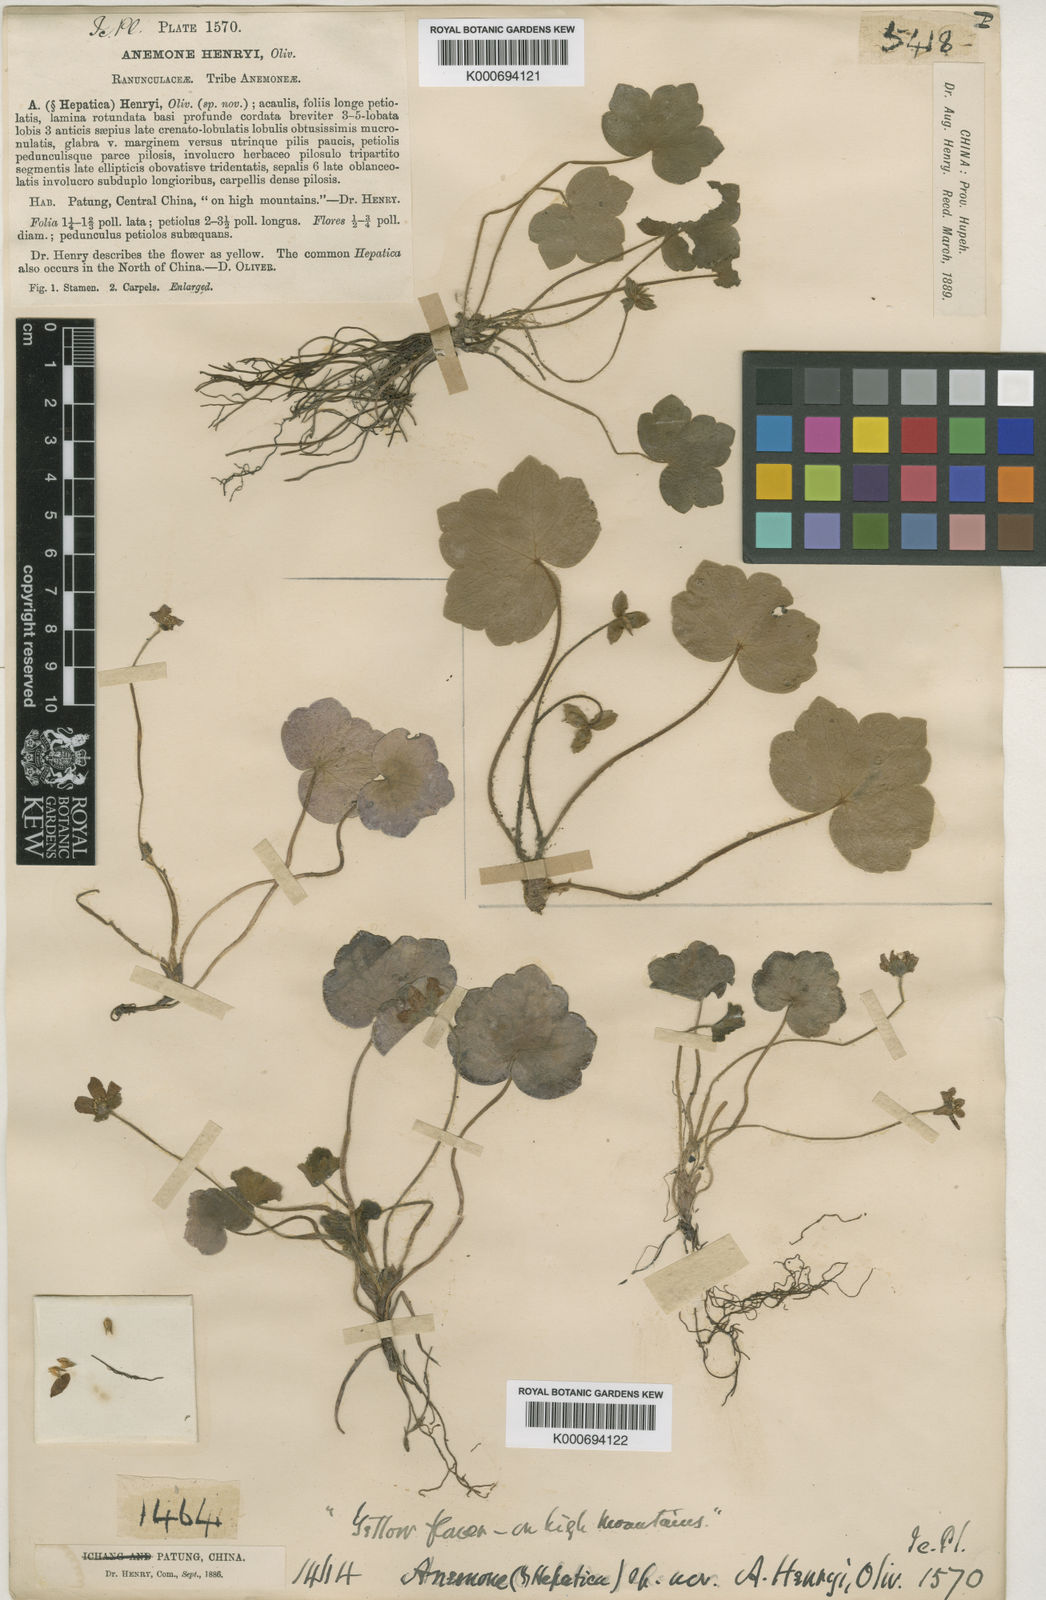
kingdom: Plantae
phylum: Tracheophyta
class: Magnoliopsida
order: Ranunculales
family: Ranunculaceae
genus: Hepatica
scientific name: Hepatica
